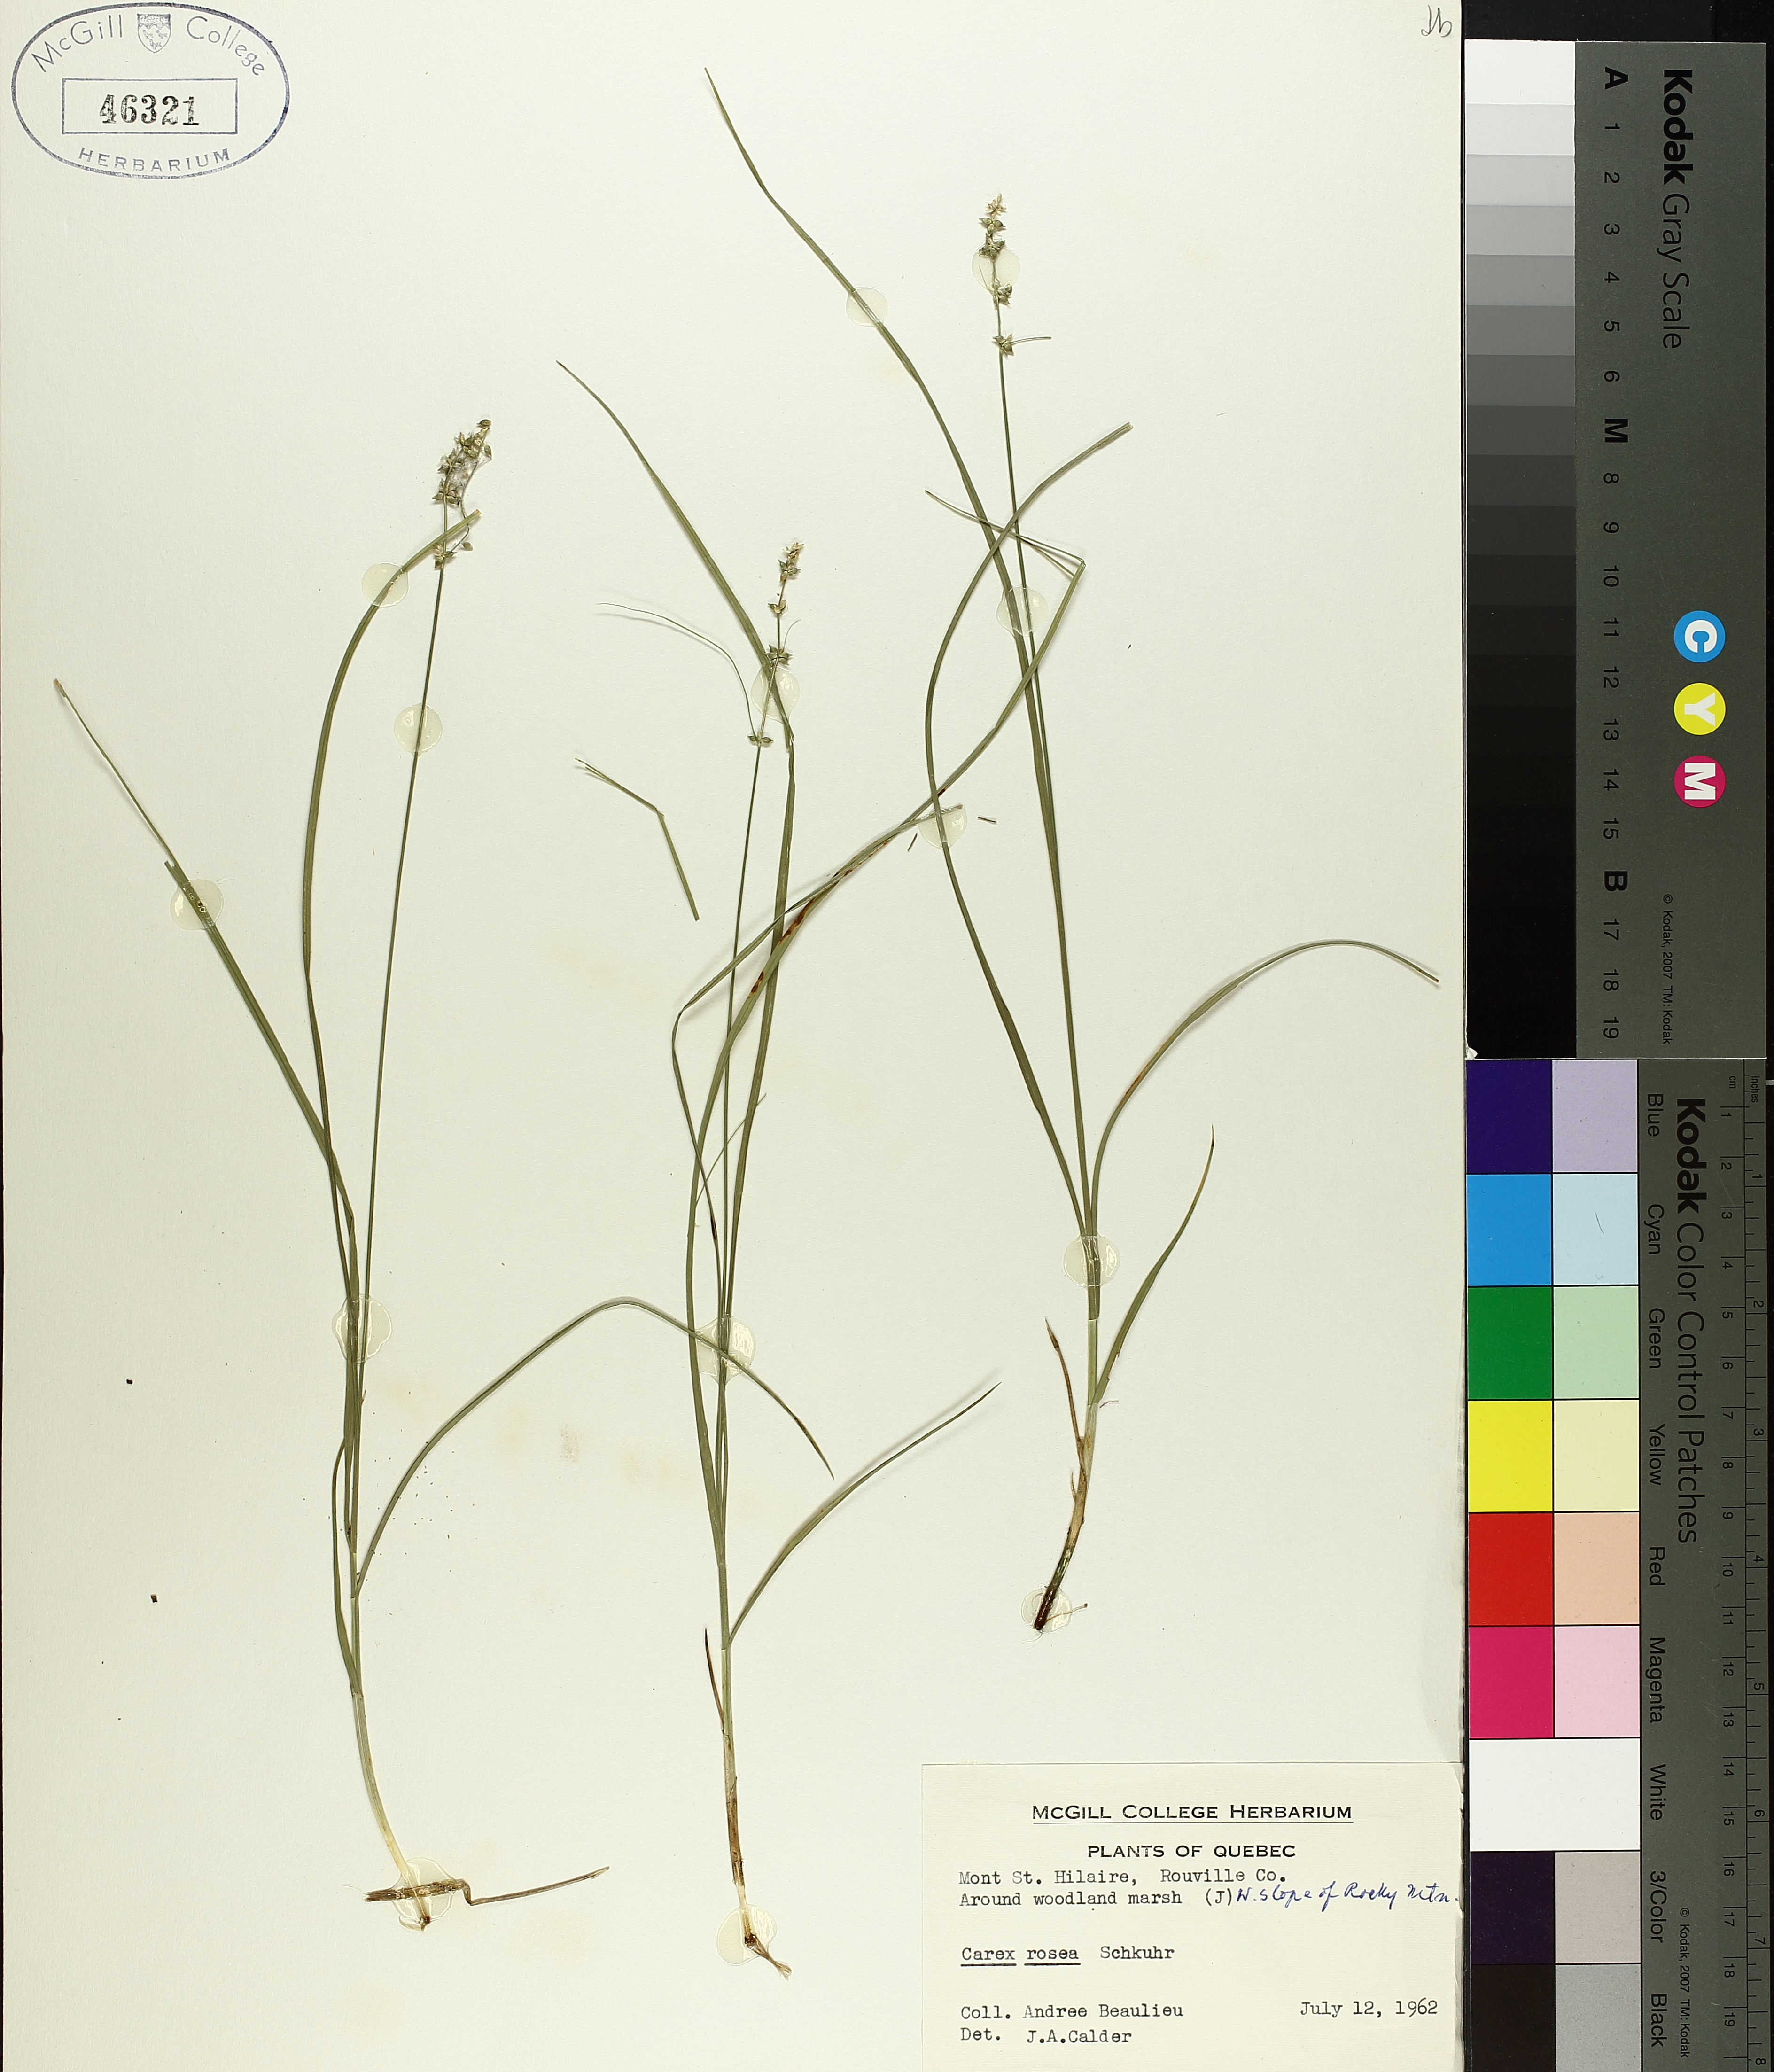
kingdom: Plantae
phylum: Tracheophyta
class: Liliopsida
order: Poales
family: Cyperaceae
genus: Carex
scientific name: Carex rosea
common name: Curly-styled wood sedge
